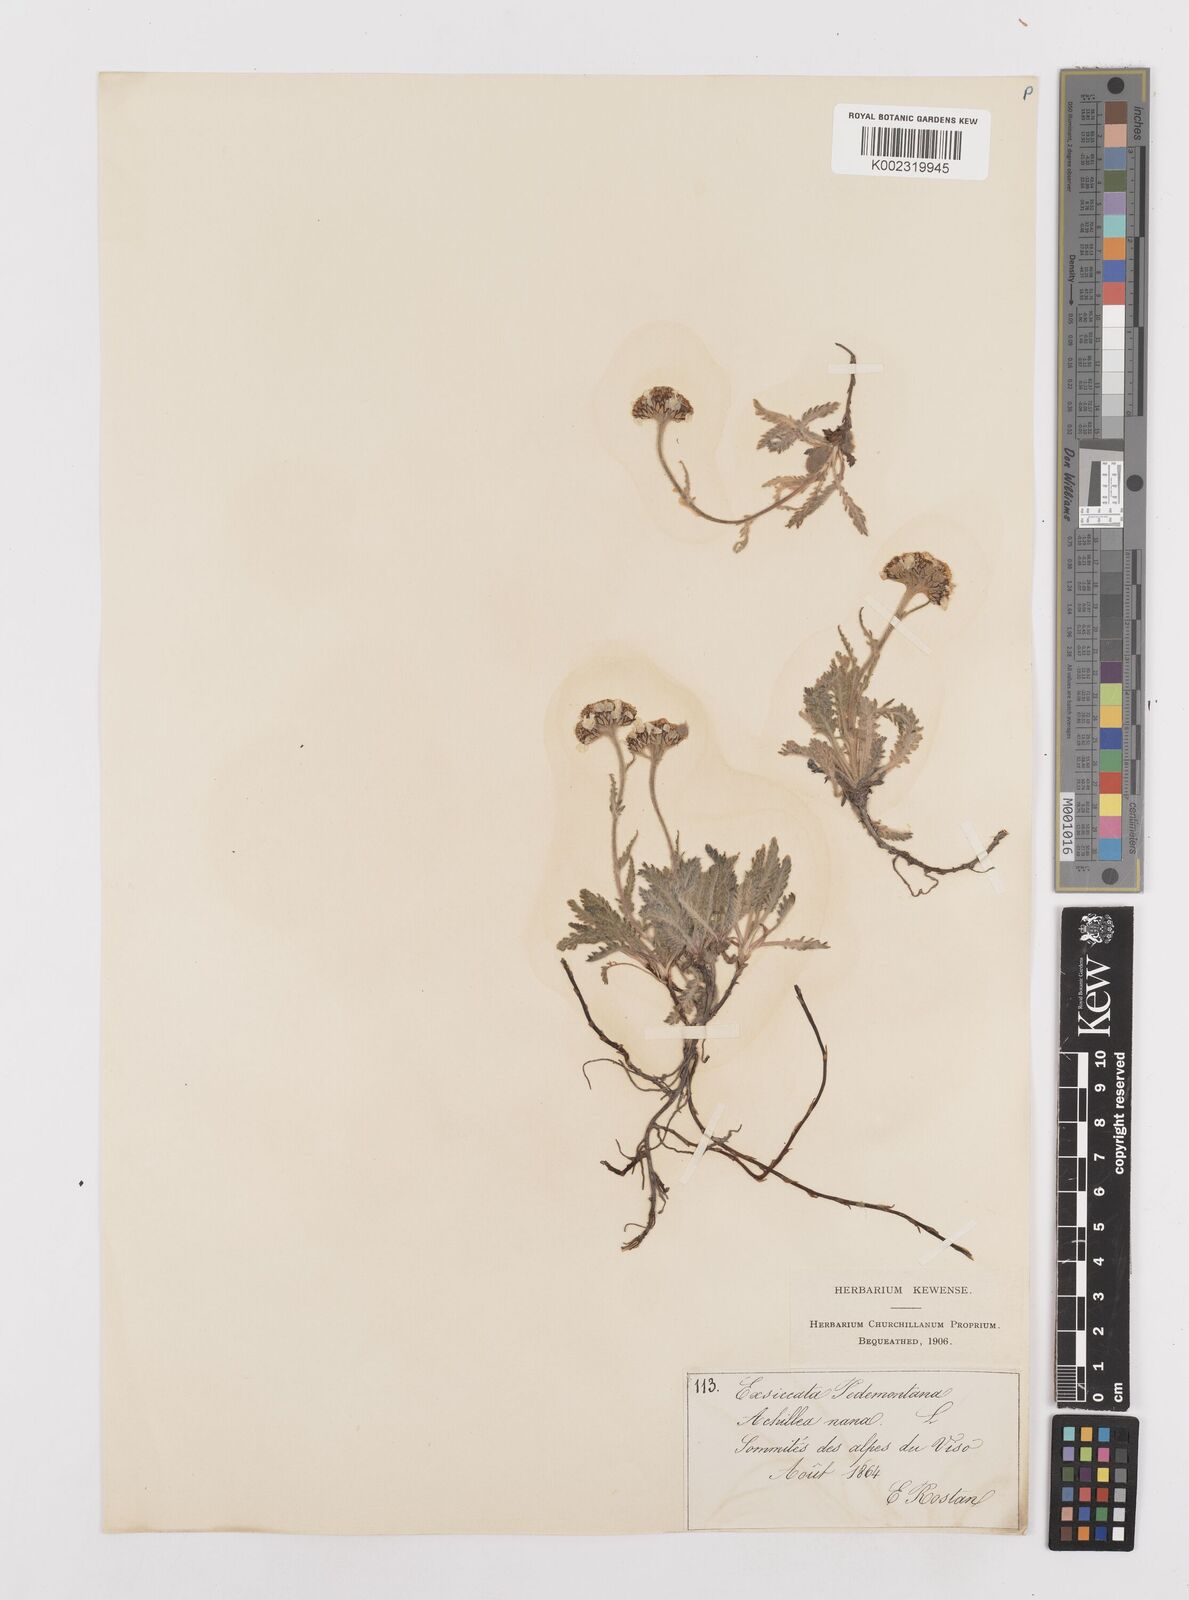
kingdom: Plantae
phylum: Tracheophyta
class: Magnoliopsida
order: Asterales
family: Asteraceae
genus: Achillea
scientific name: Achillea
